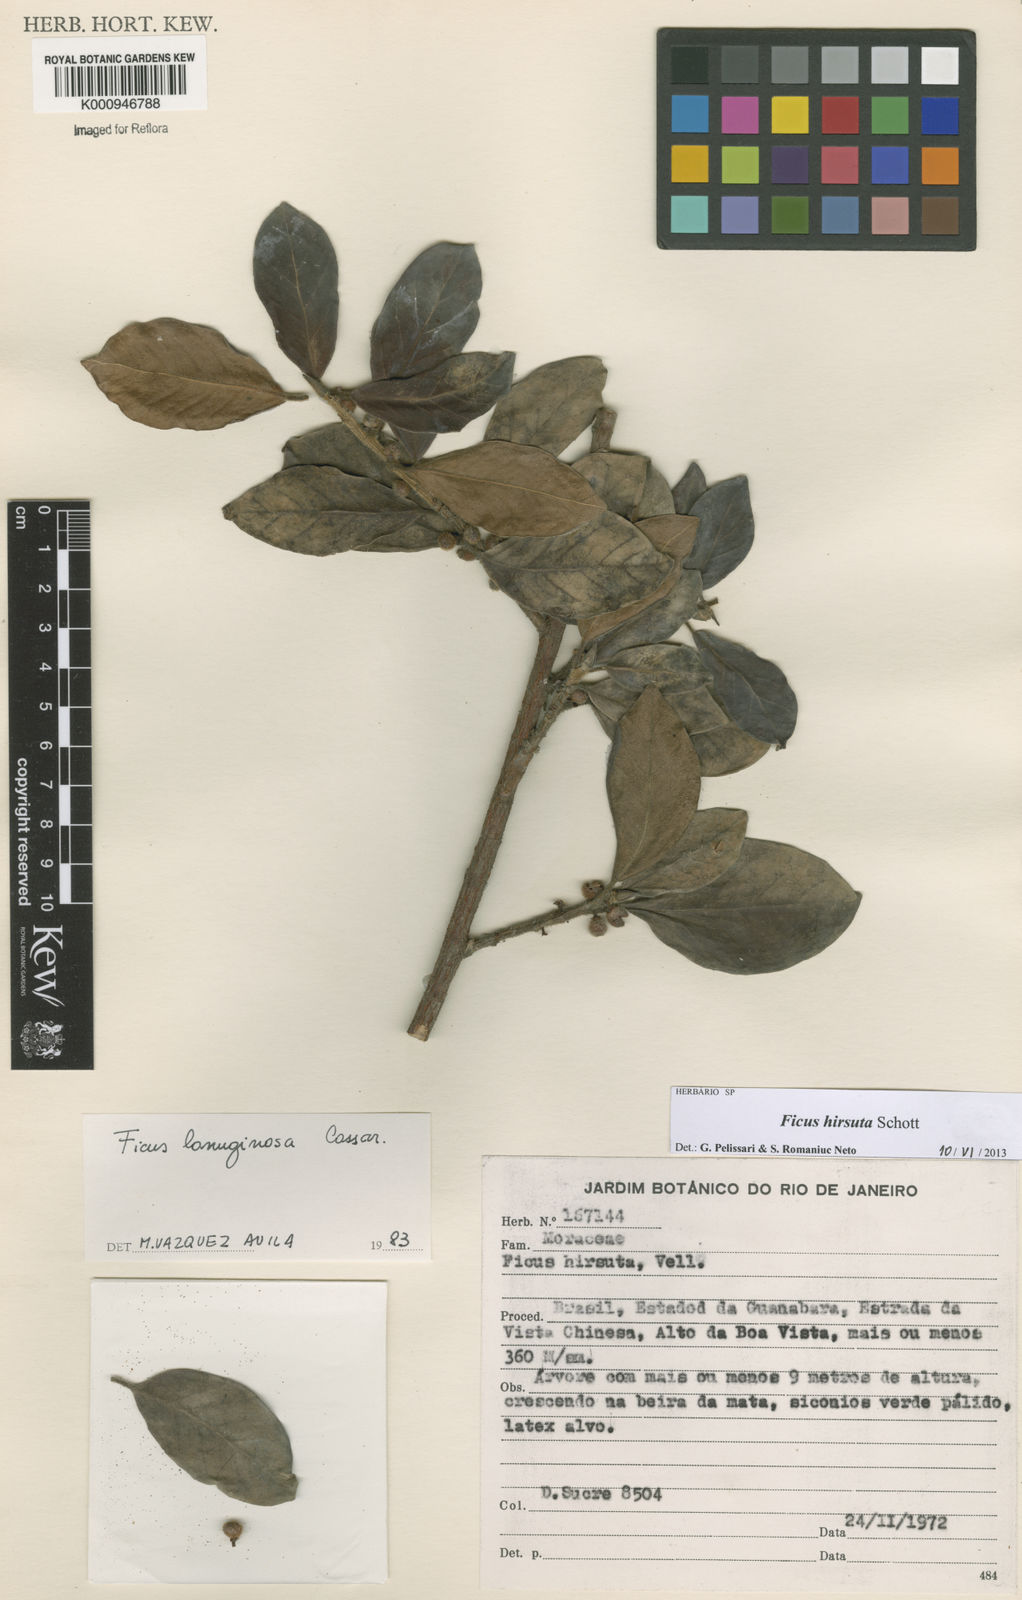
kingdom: Plantae
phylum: Tracheophyta
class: Magnoliopsida
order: Rosales
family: Moraceae
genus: Ficus
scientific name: Ficus hirsuta
